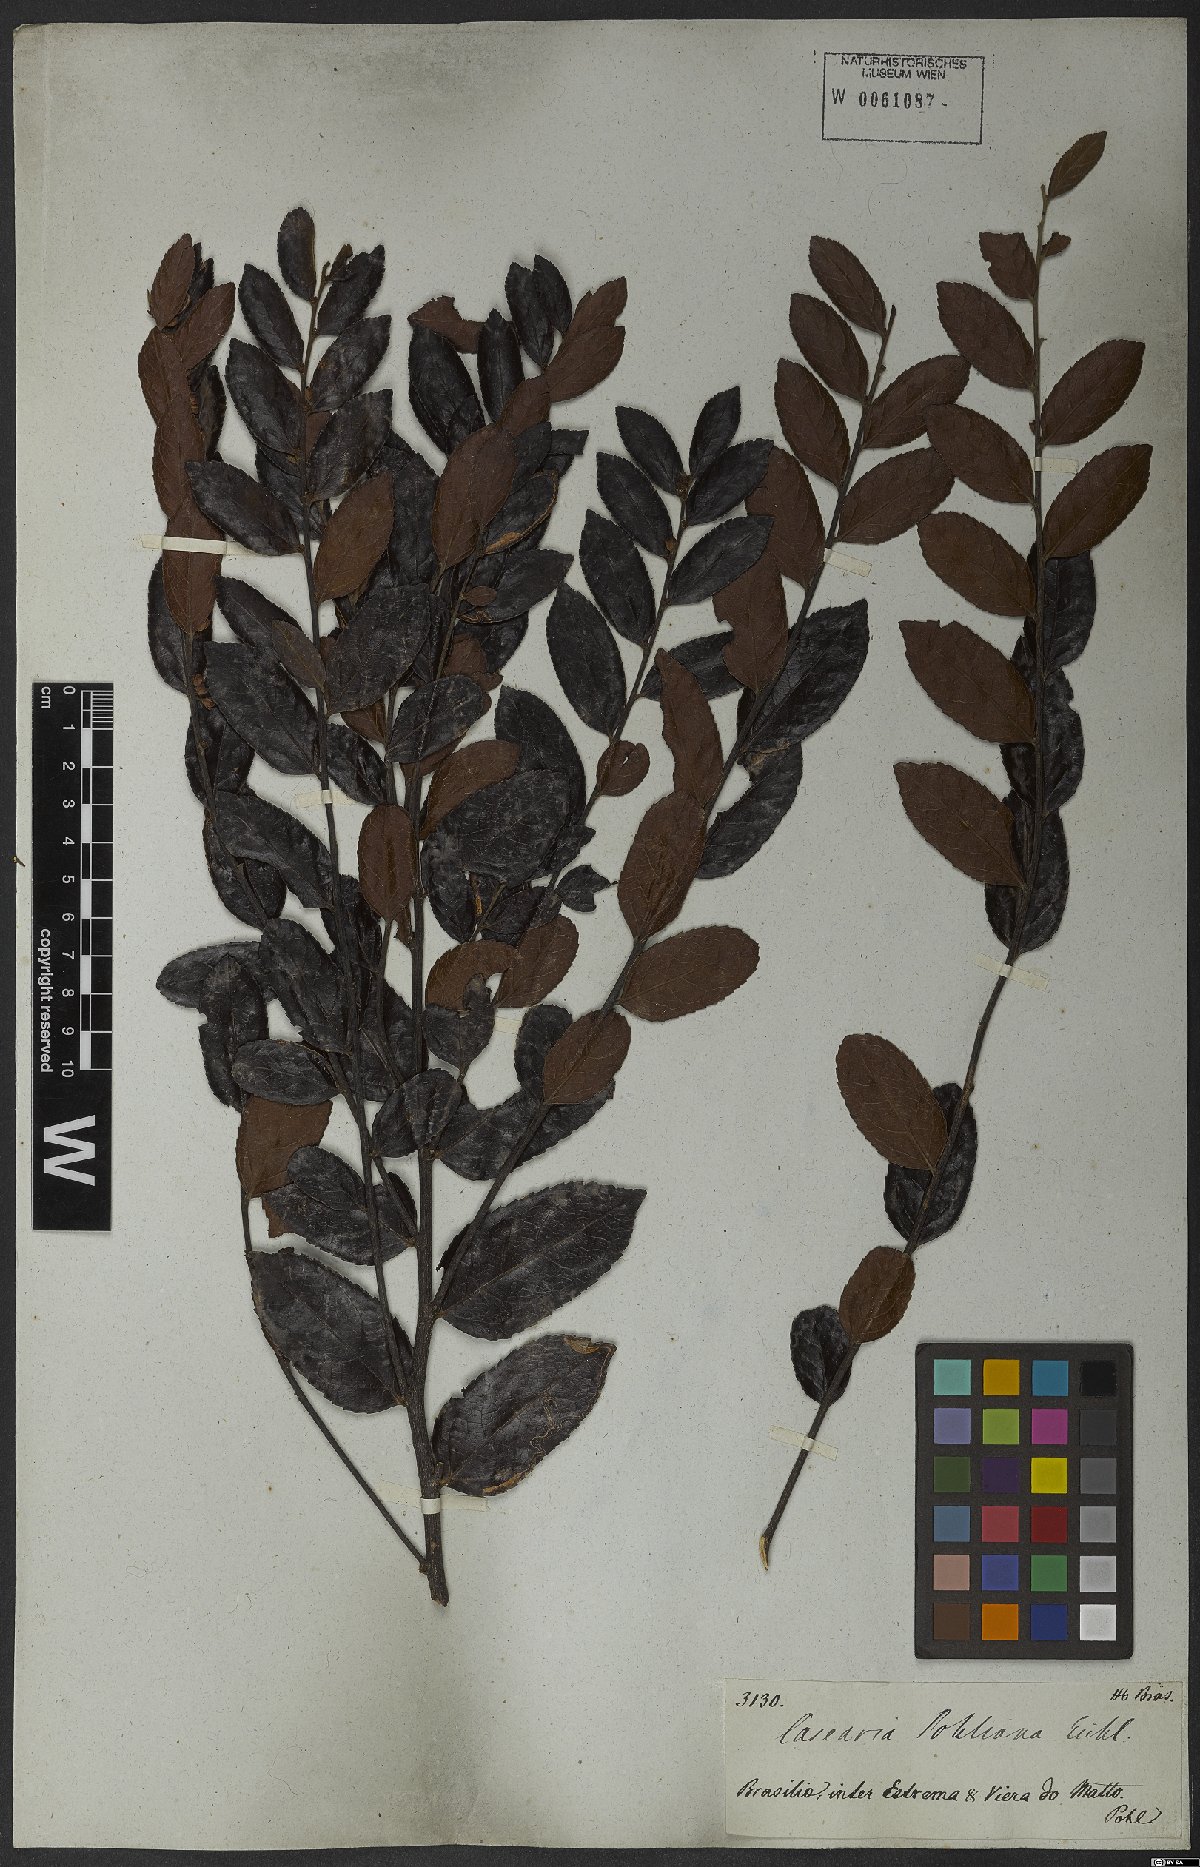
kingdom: Plantae
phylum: Tracheophyta
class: Magnoliopsida
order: Malpighiales
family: Salicaceae
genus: Casearia
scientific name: Casearia rufescens
